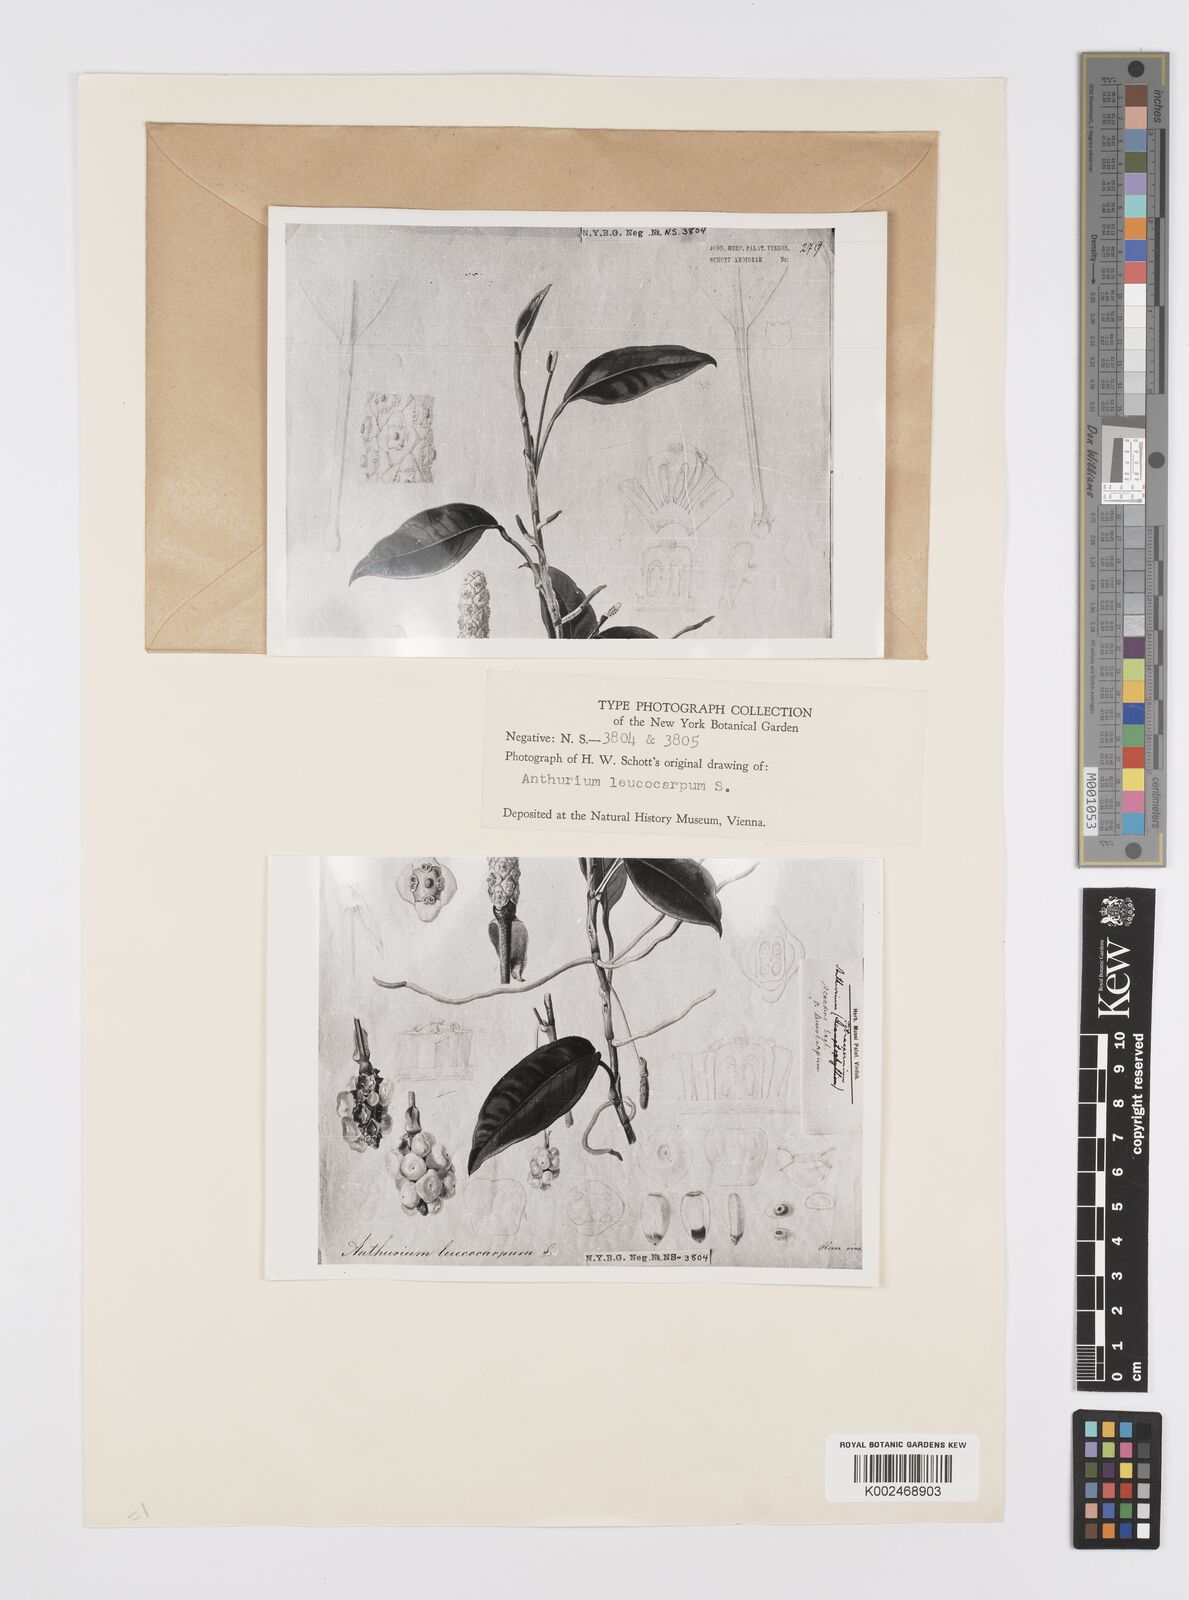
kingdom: Plantae
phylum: Tracheophyta
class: Liliopsida
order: Alismatales
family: Araceae
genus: Anthurium
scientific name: Anthurium scandens
